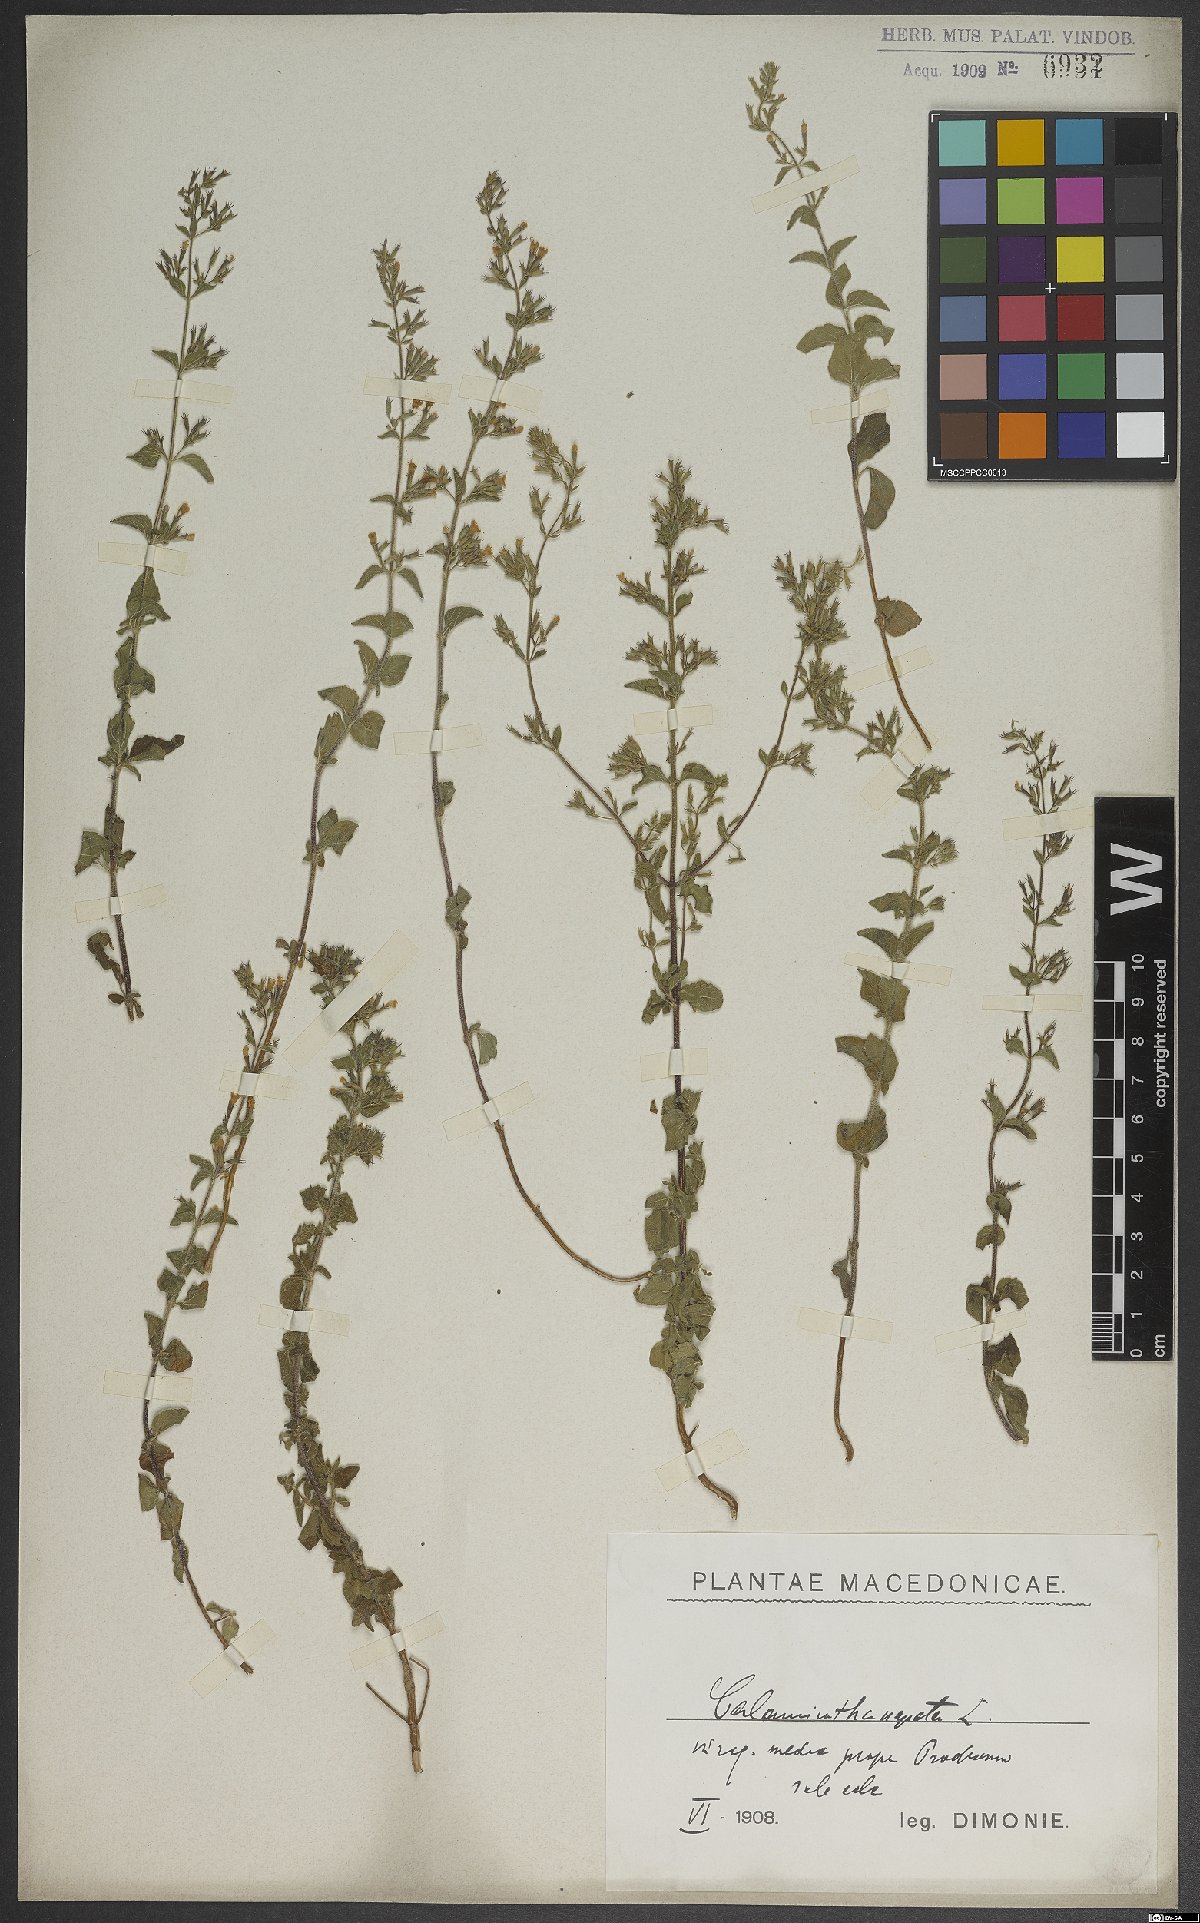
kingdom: Plantae
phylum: Tracheophyta
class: Magnoliopsida
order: Lamiales
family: Lamiaceae
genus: Clinopodium
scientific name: Clinopodium nepeta
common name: Lesser calamint
